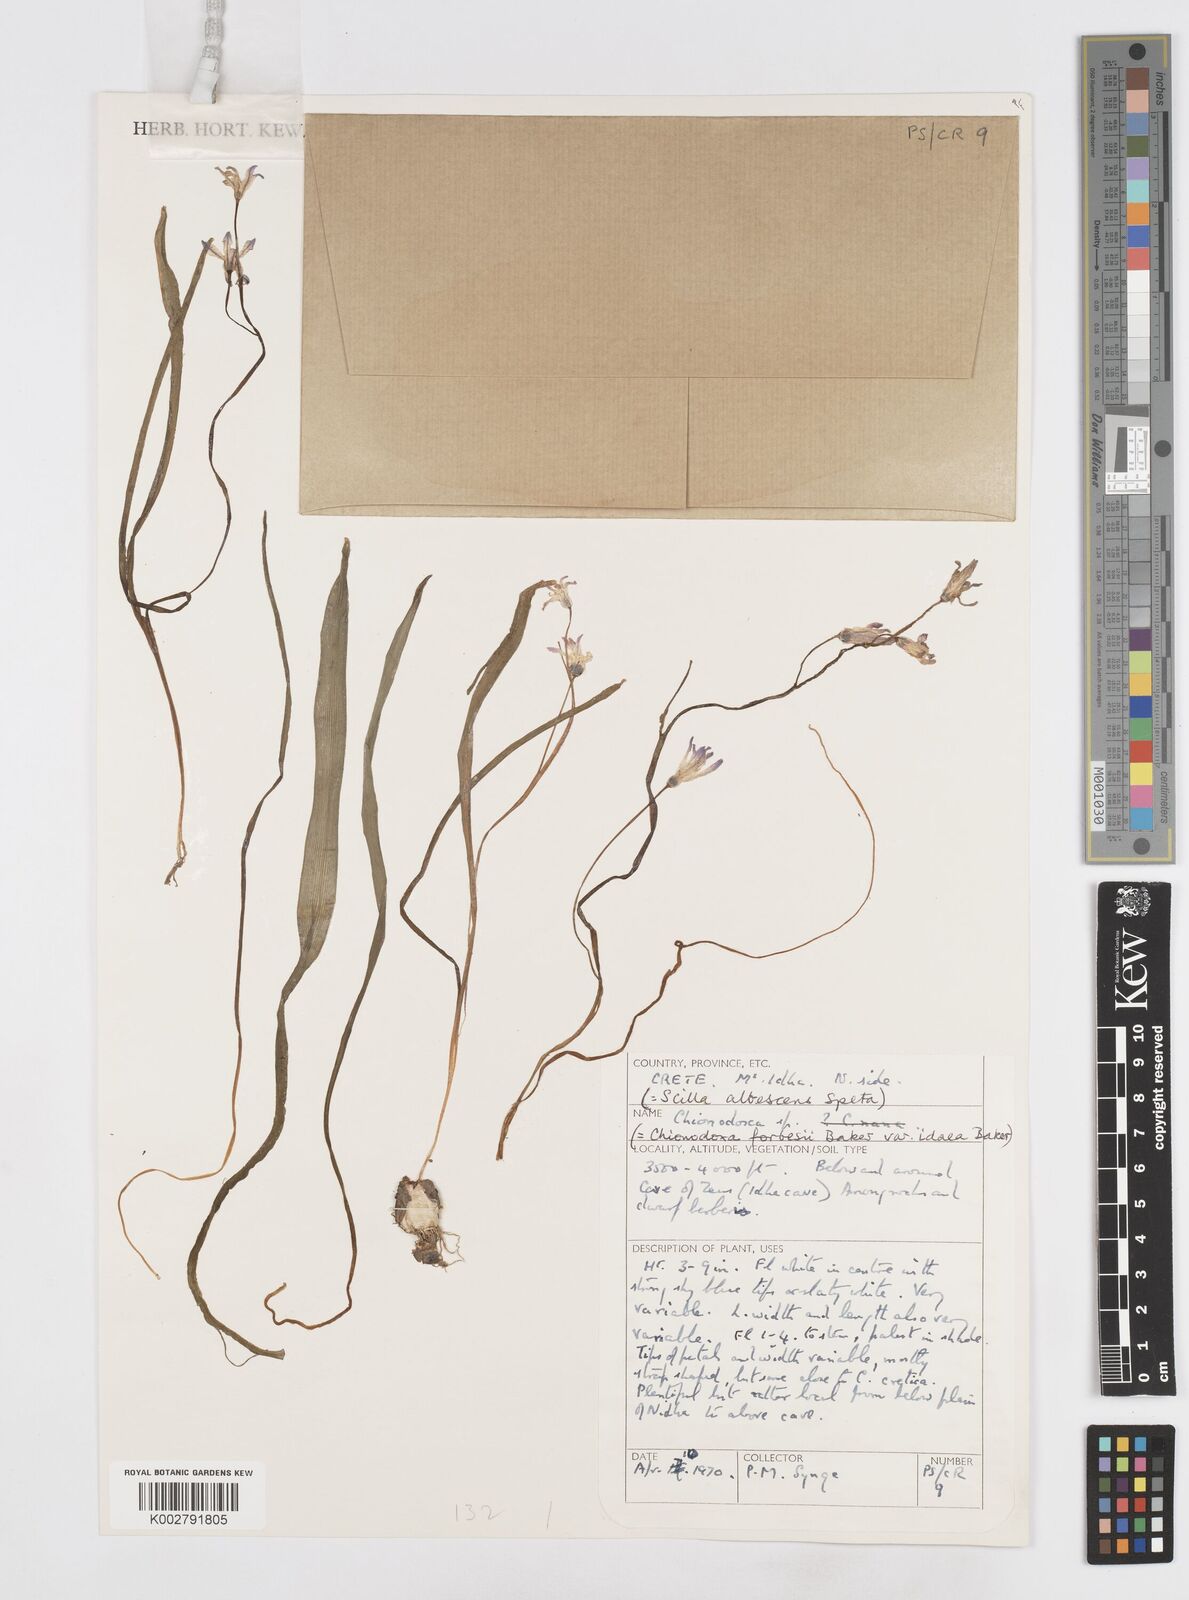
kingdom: Plantae
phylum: Tracheophyta
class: Liliopsida
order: Asparagales
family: Asparagaceae
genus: Scilla
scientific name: Scilla
